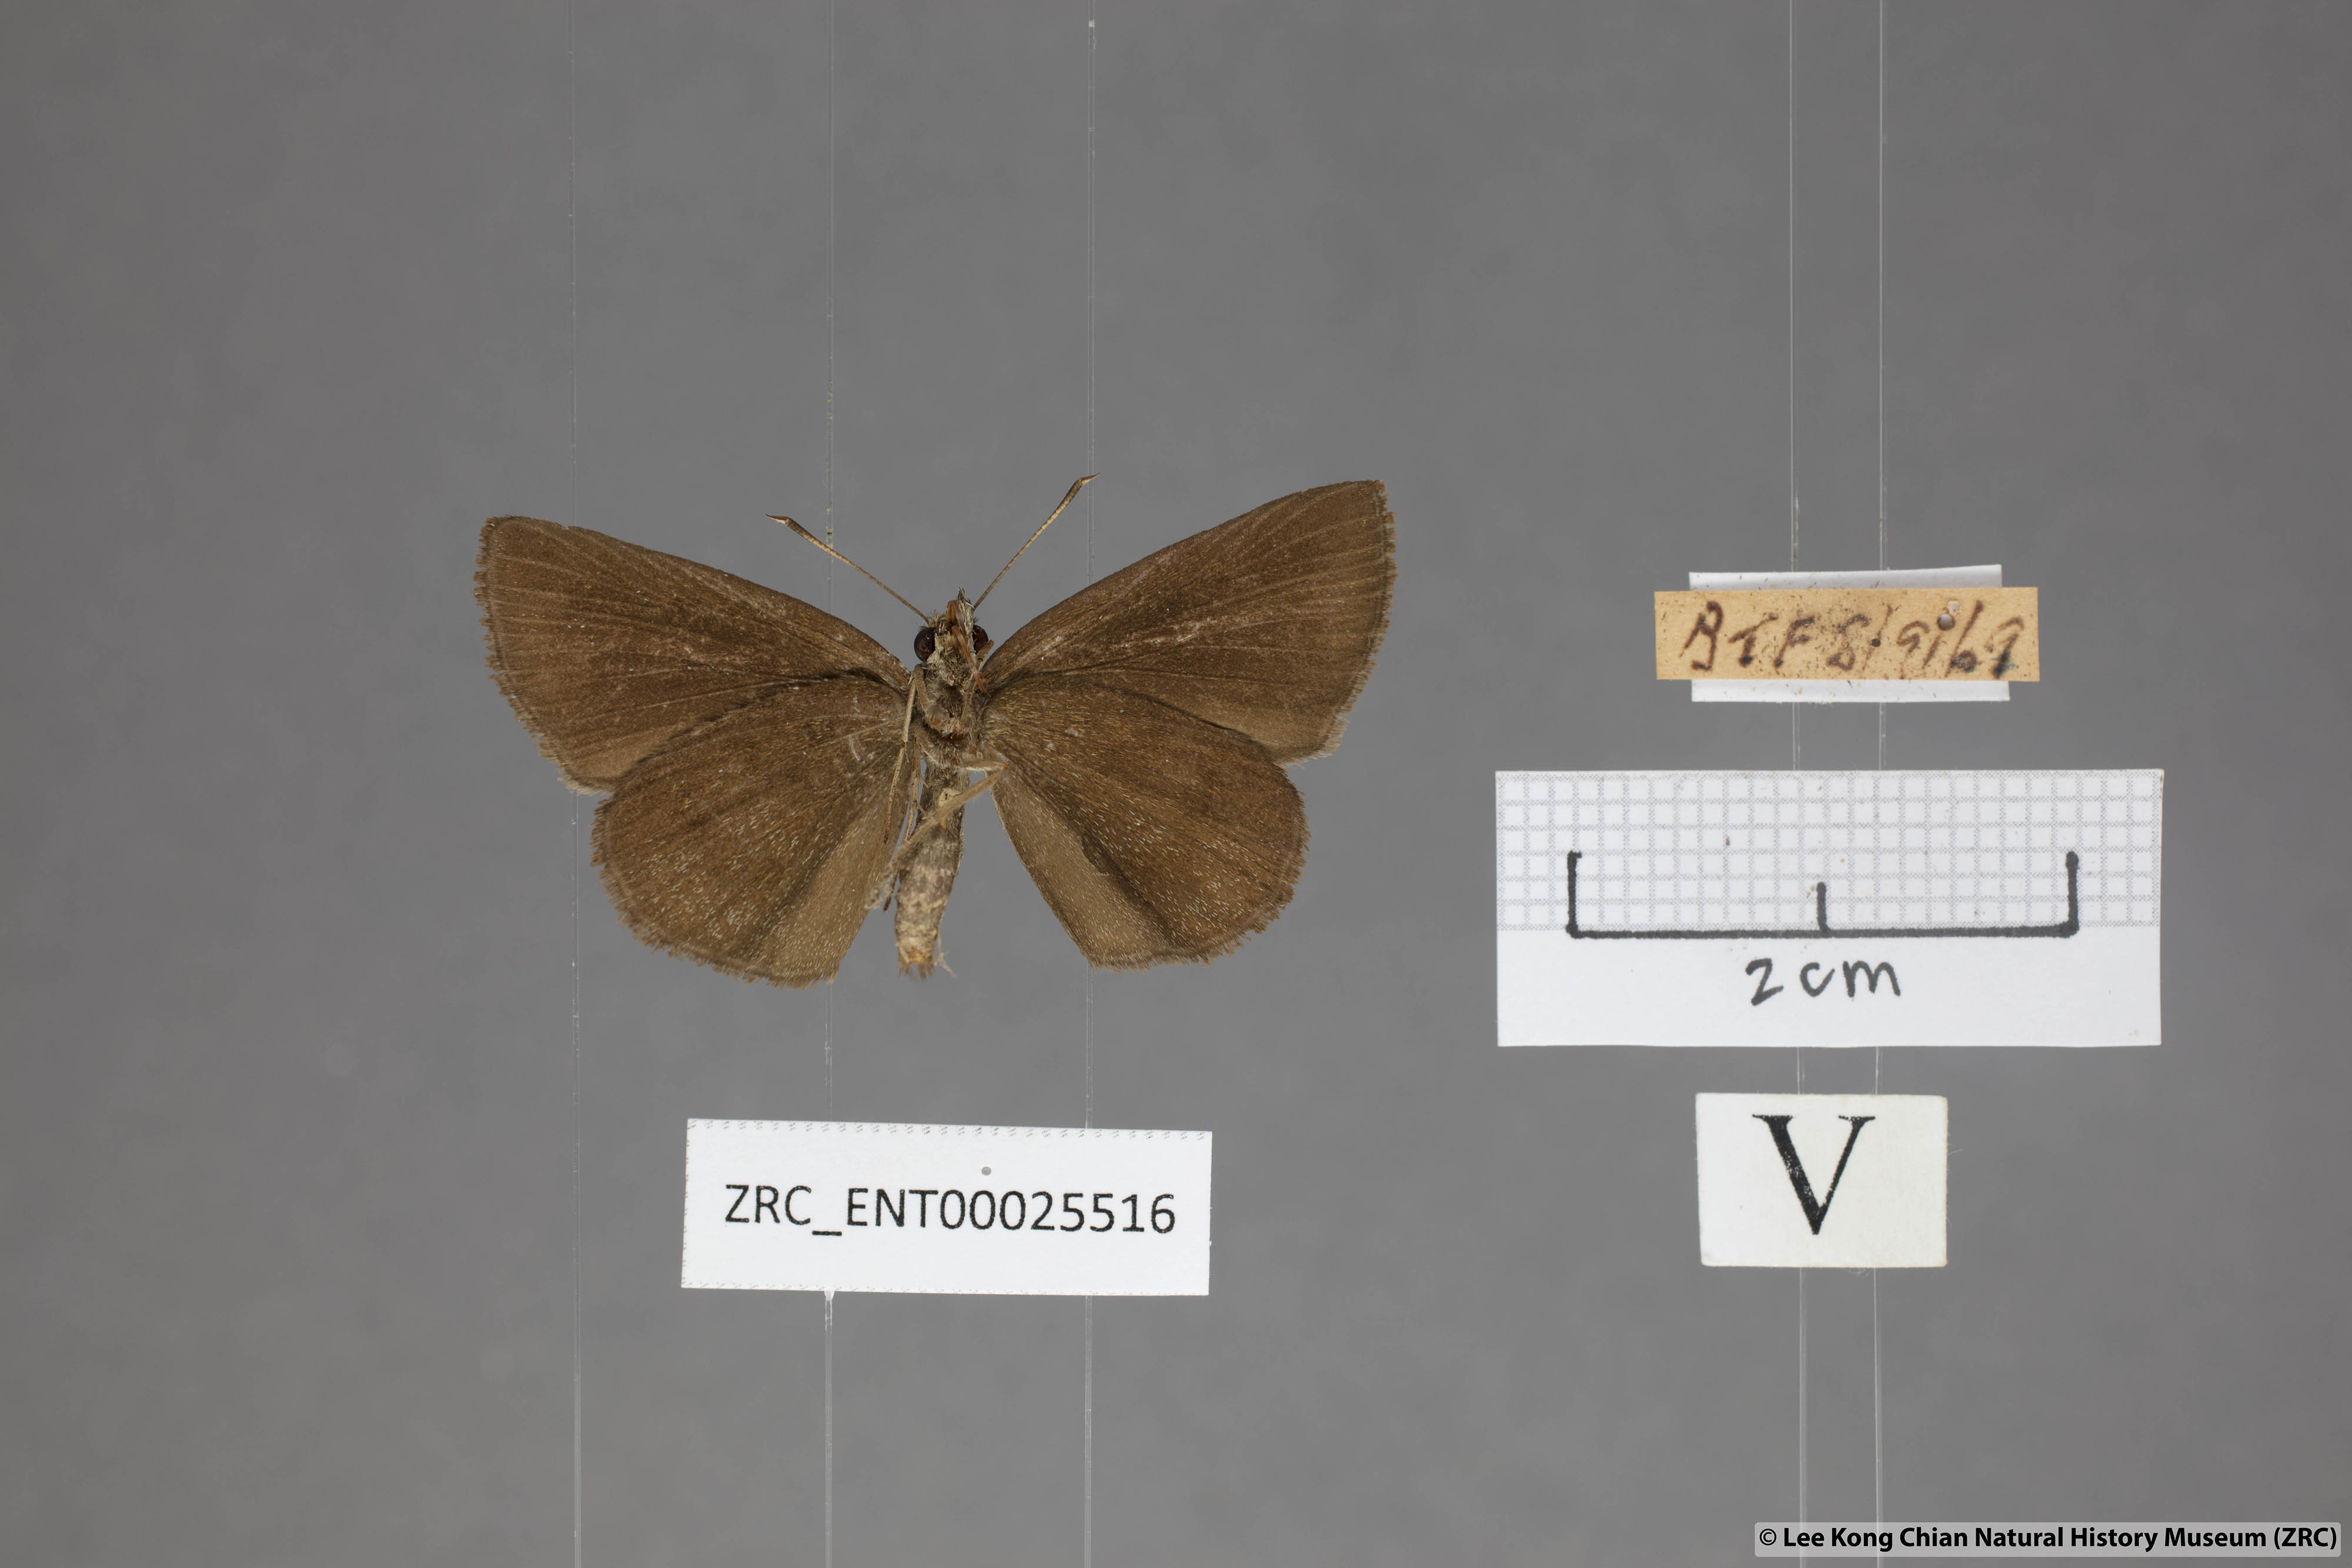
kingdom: Animalia
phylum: Arthropoda
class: Insecta
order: Lepidoptera
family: Hesperiidae
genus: Psolos
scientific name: Psolos fuligo
